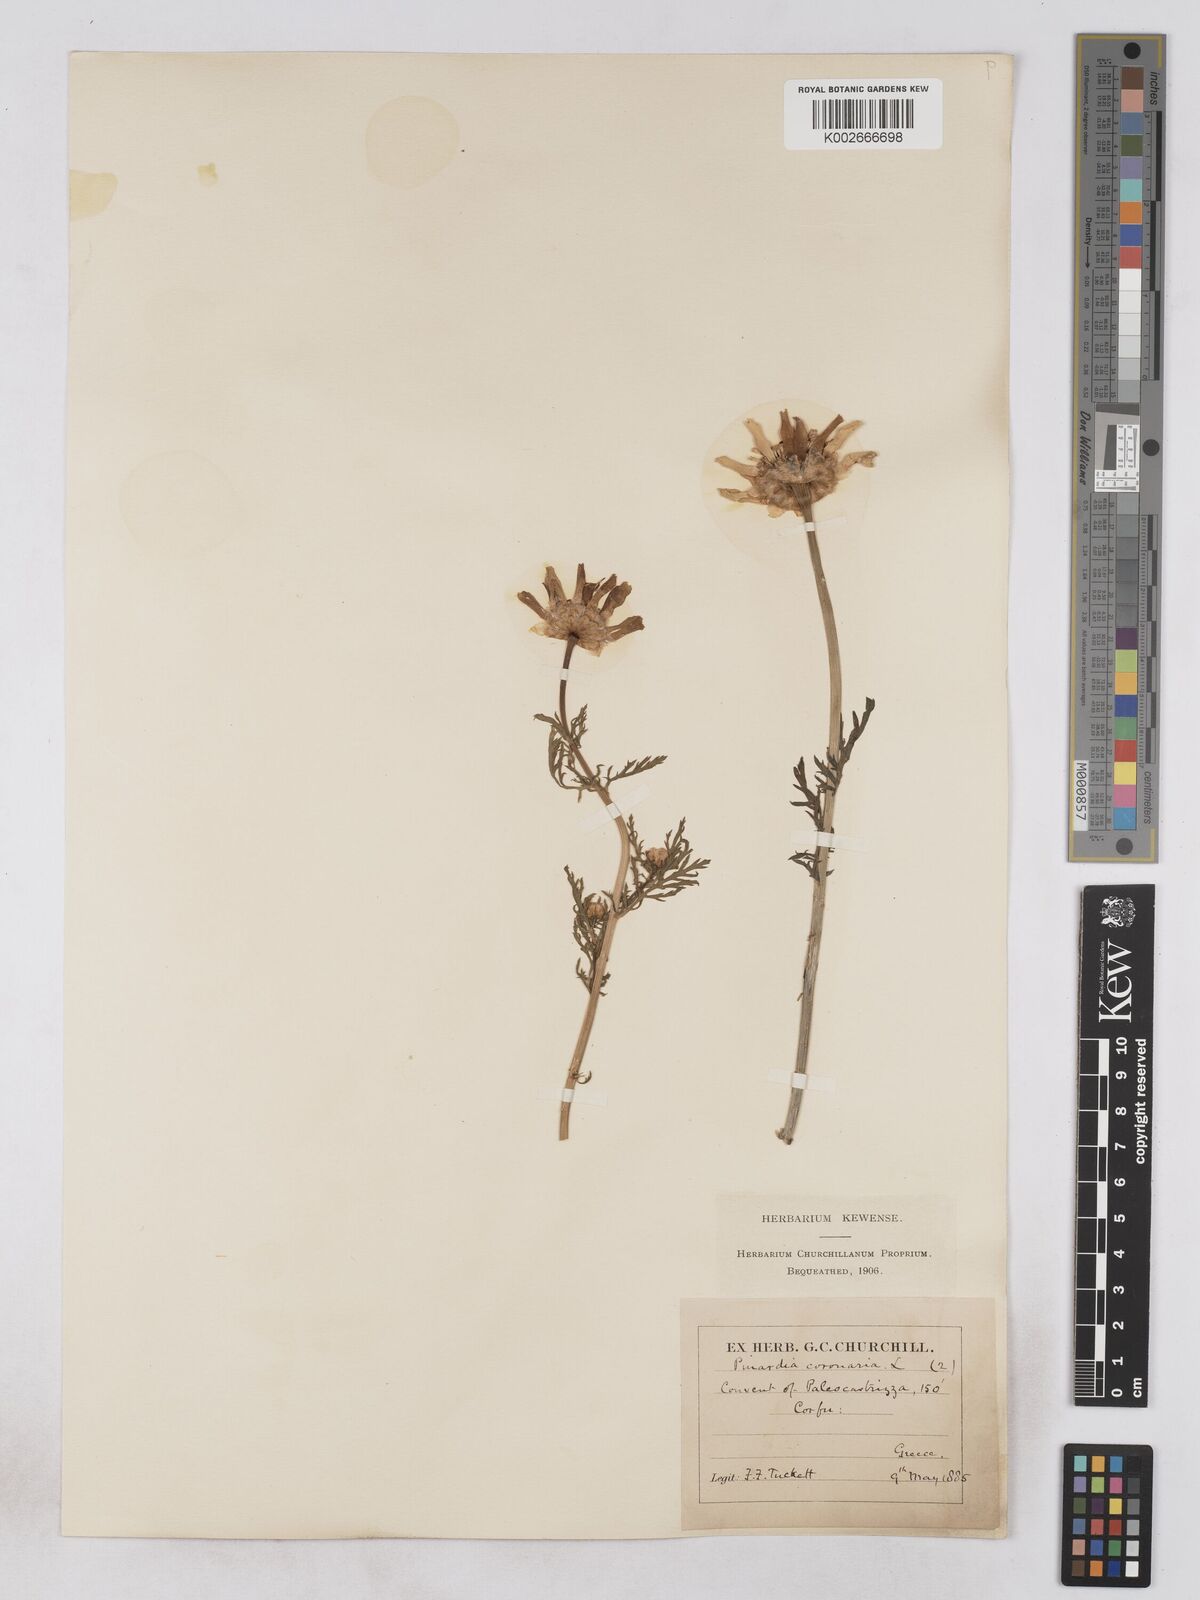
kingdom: Plantae
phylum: Tracheophyta
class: Magnoliopsida
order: Asterales
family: Asteraceae
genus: Glebionis
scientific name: Glebionis coronaria
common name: Crowndaisy
